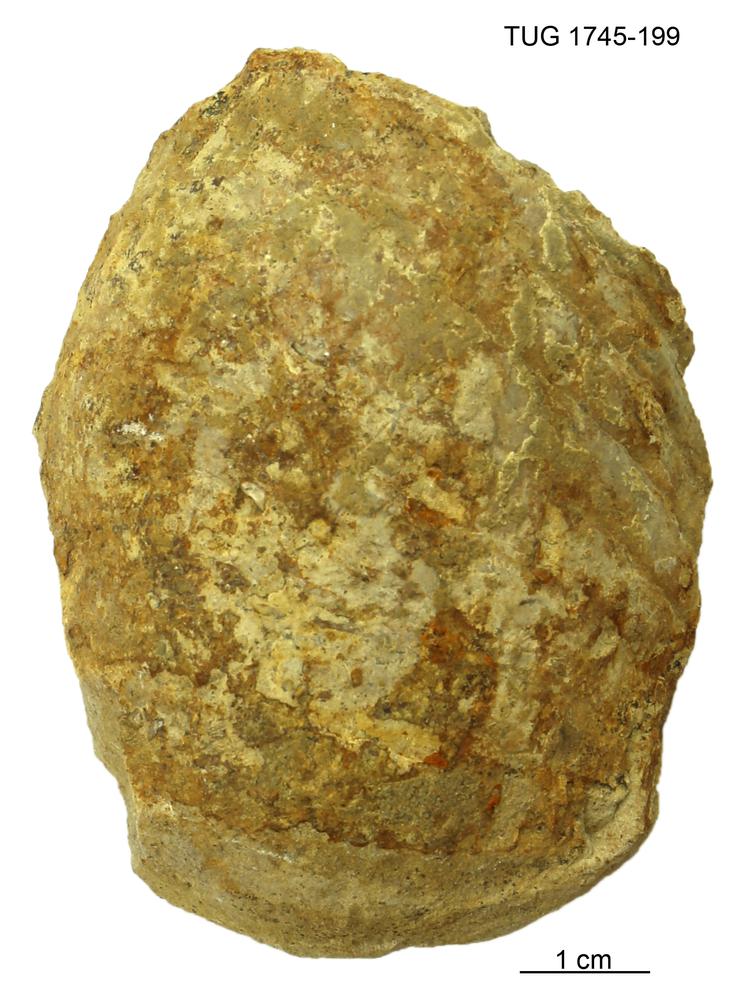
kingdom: Animalia
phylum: Mollusca
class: Cephalopoda
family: Protophragmoceratidae
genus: Protophragmoceras
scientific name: Protophragmoceras
